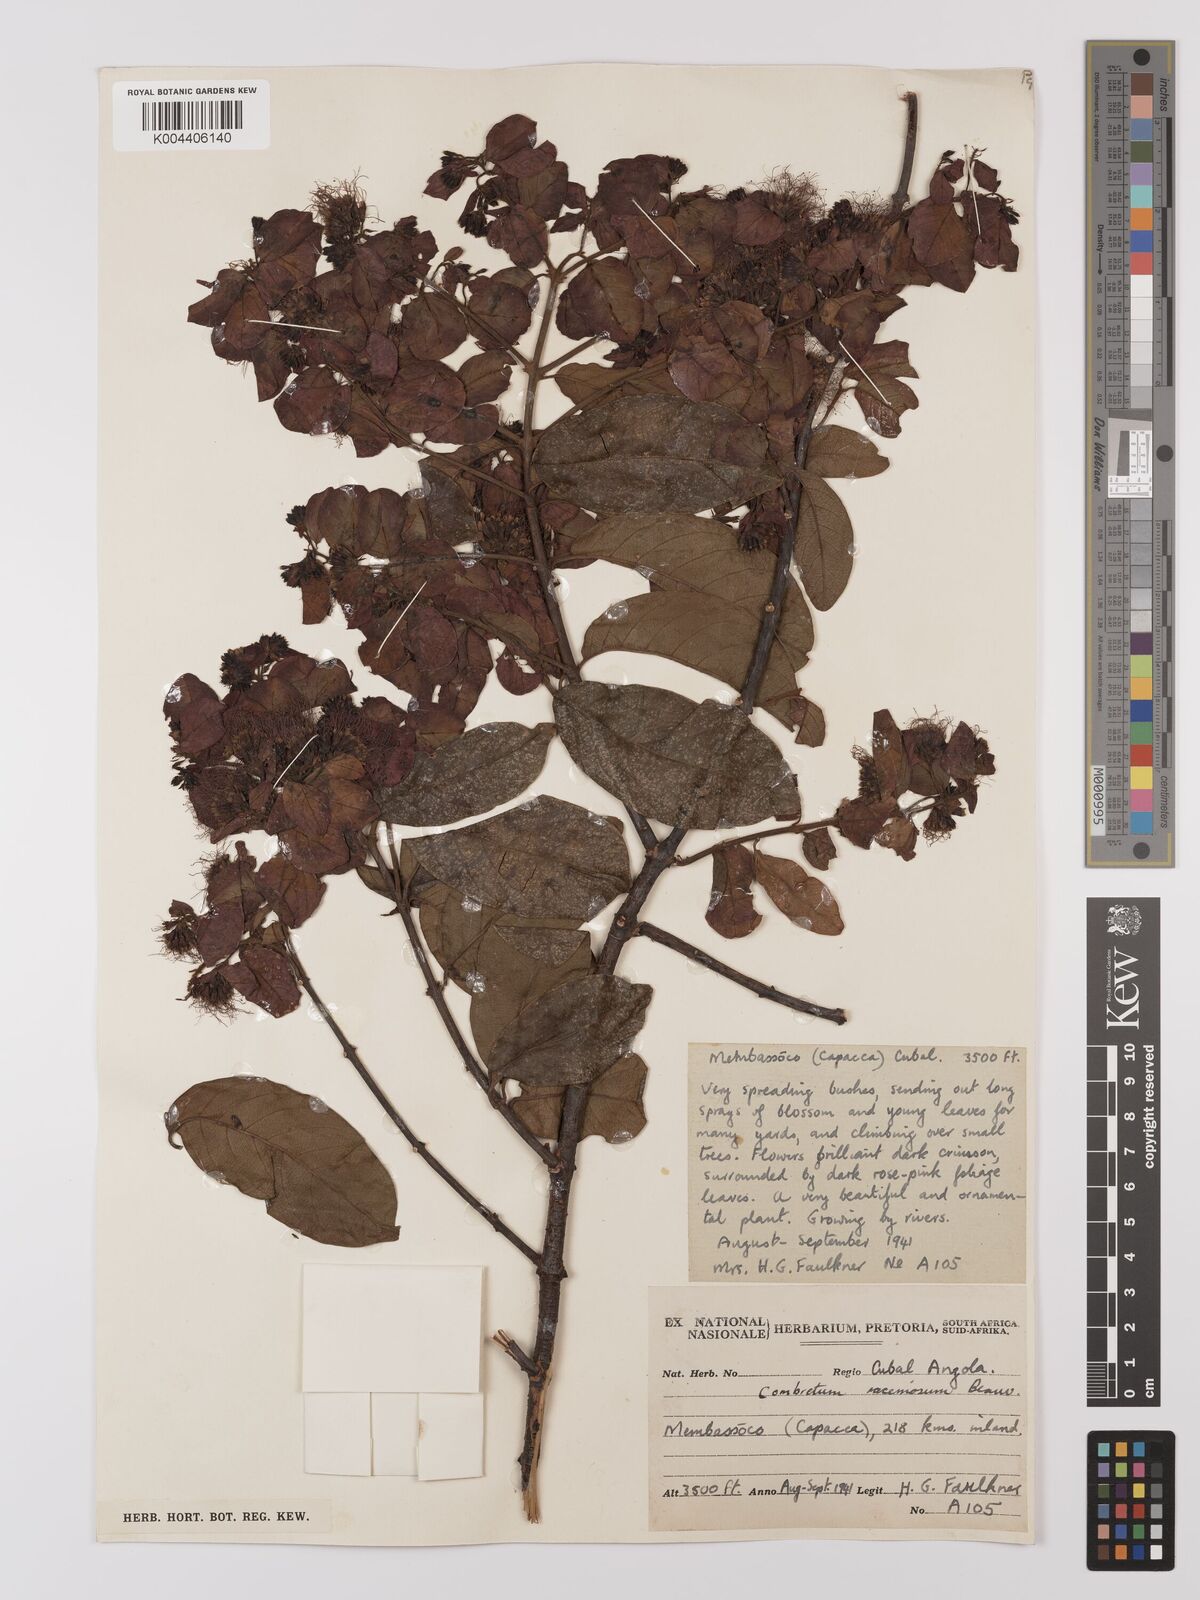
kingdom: Plantae
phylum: Tracheophyta
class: Magnoliopsida
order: Myrtales
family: Combretaceae
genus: Combretum
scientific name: Combretum racemosum
